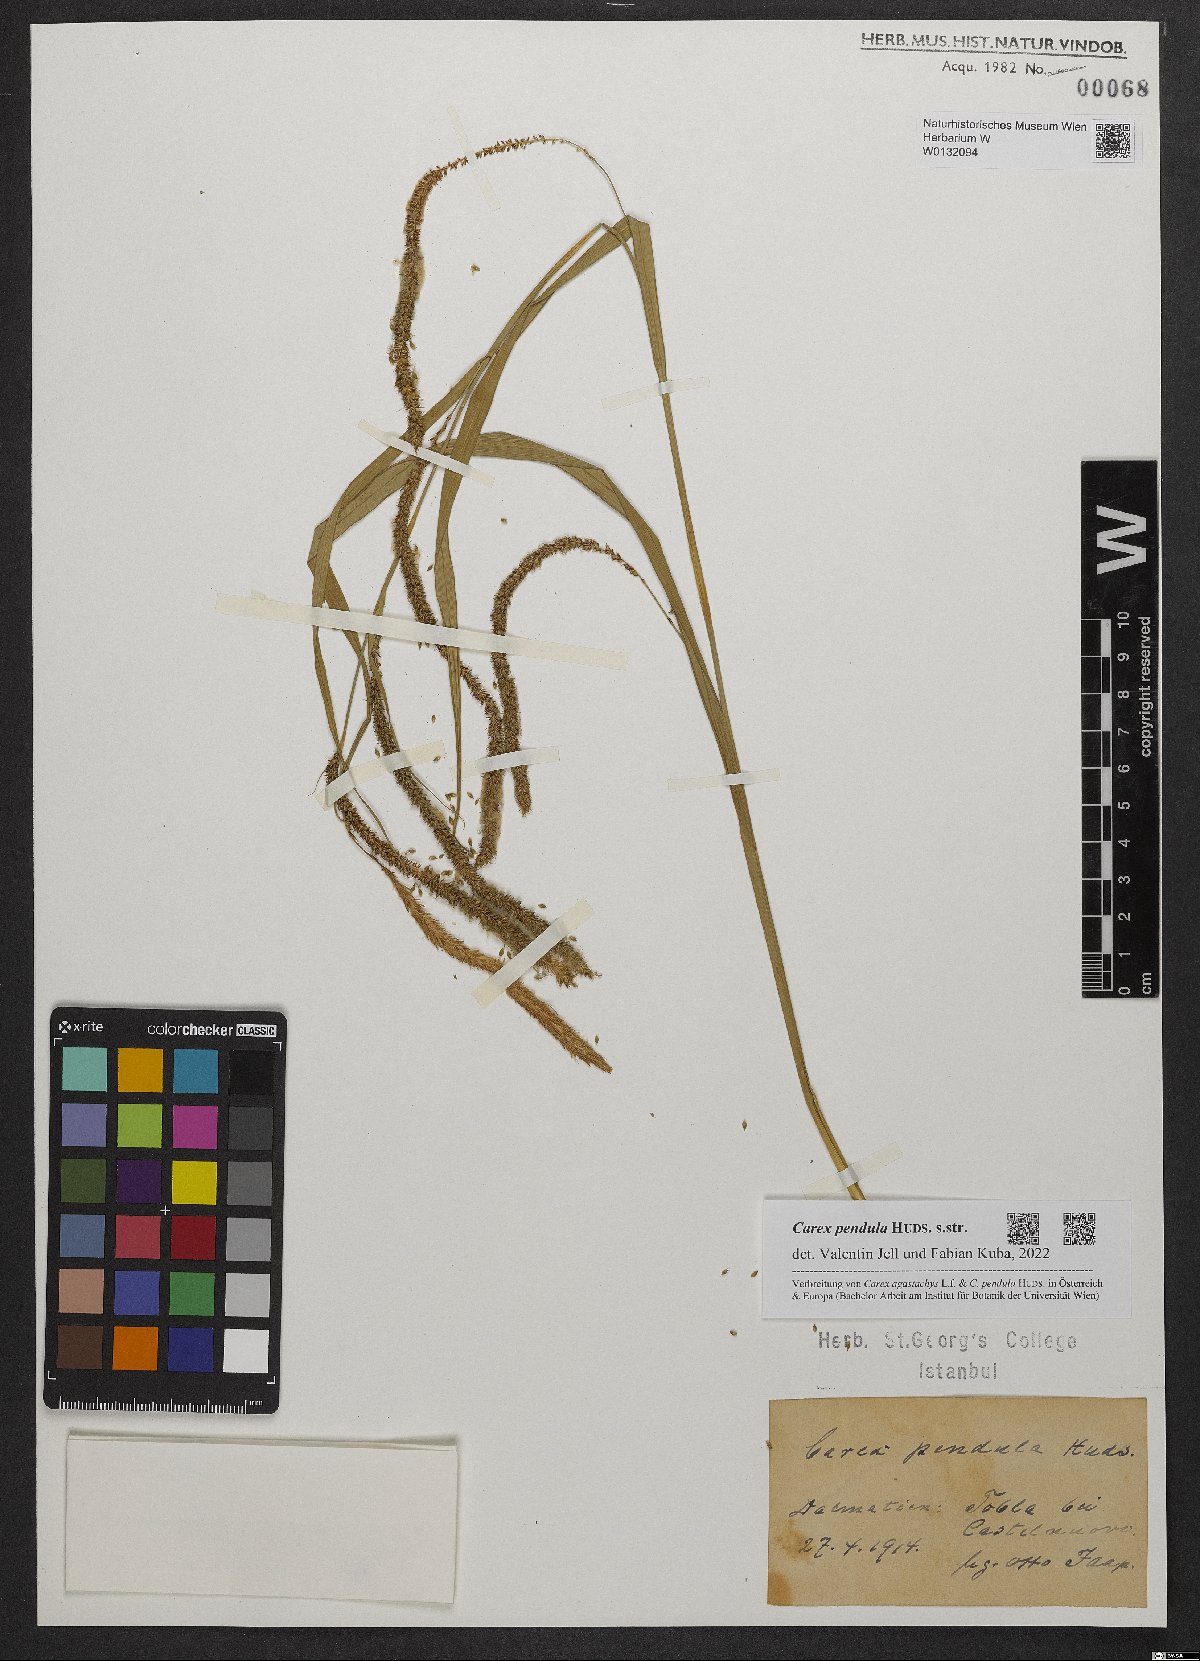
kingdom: Plantae
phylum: Tracheophyta
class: Liliopsida
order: Poales
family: Cyperaceae
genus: Carex
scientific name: Carex pendula
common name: Pendulous sedge
